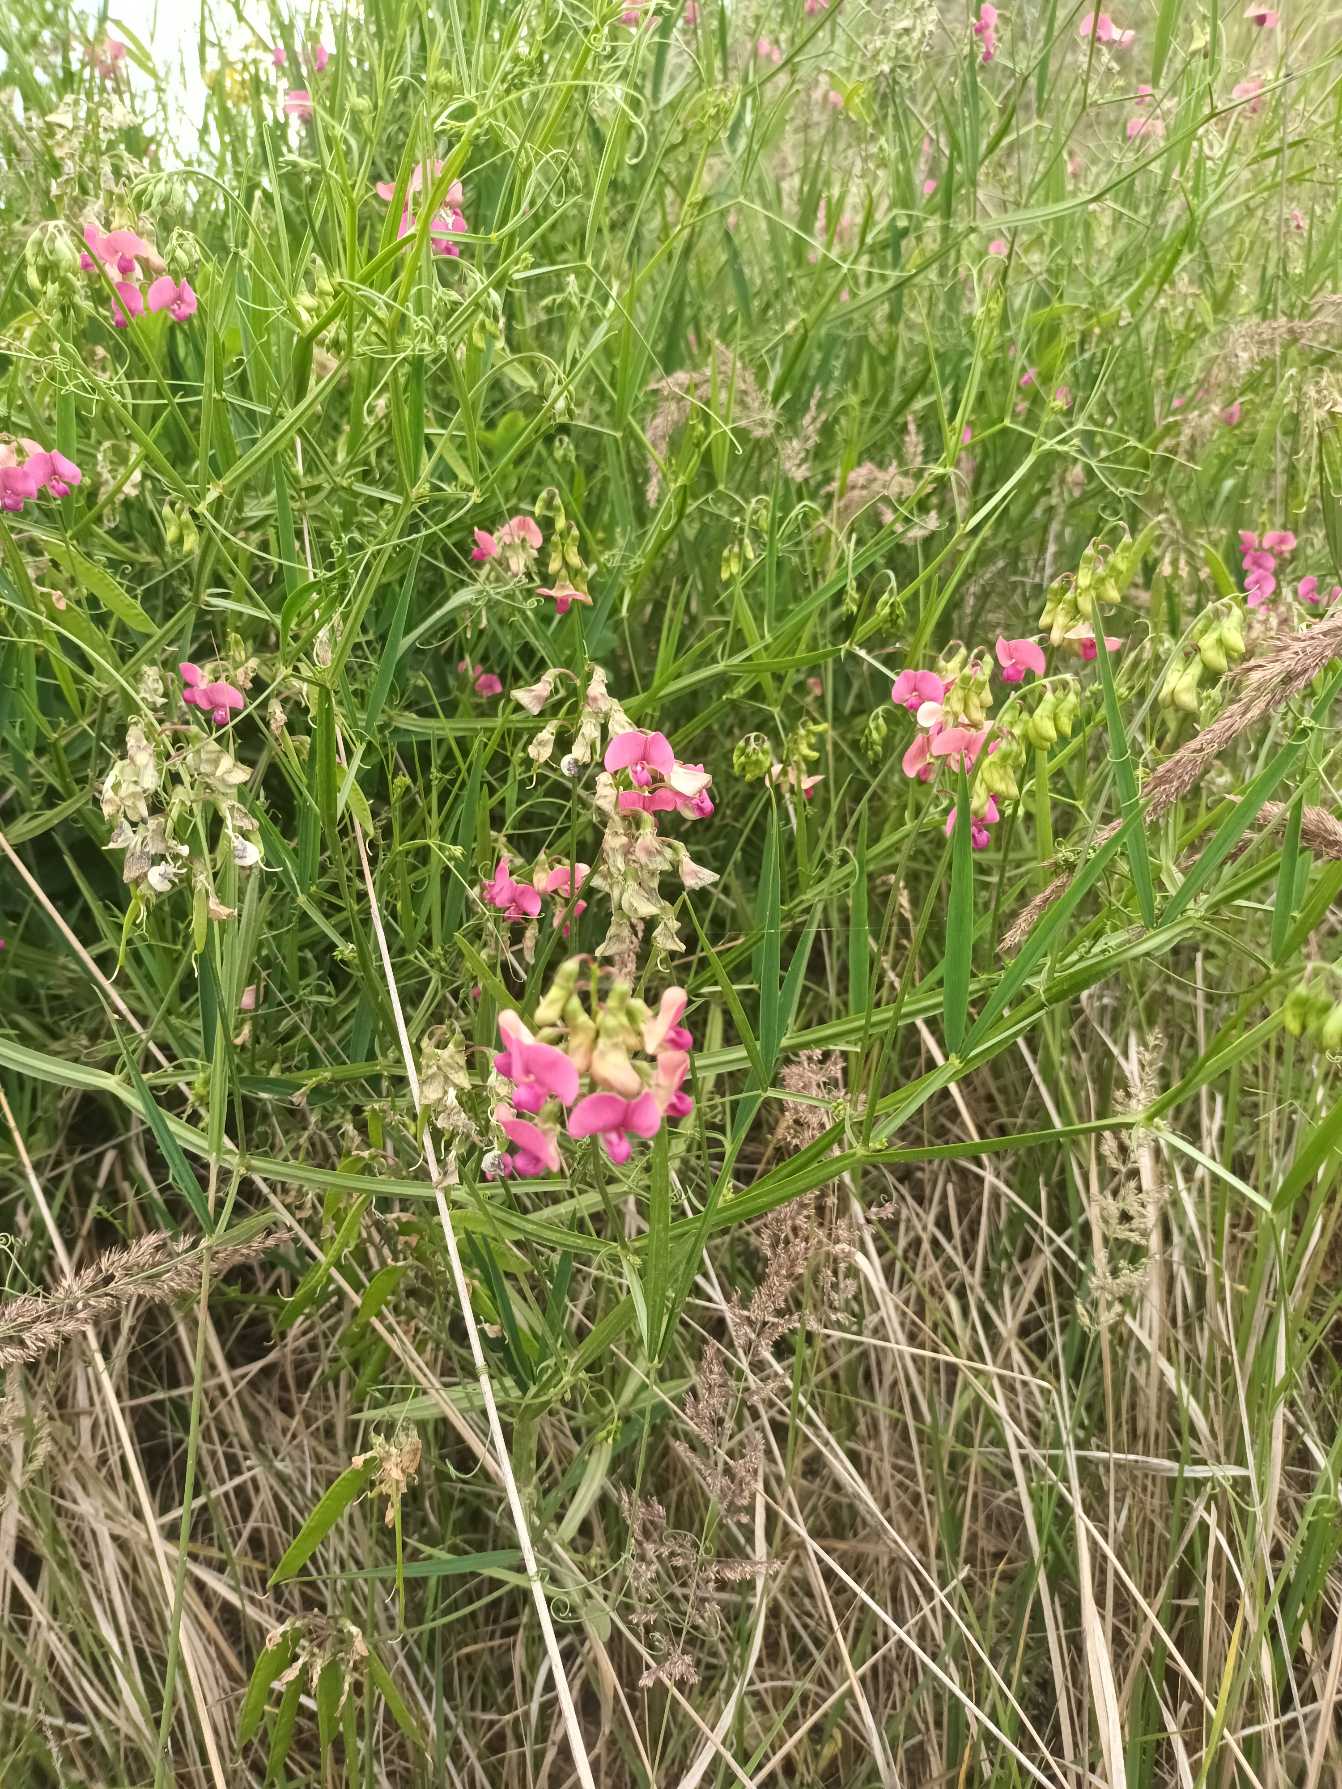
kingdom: Plantae
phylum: Tracheophyta
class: Magnoliopsida
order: Fabales
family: Fabaceae
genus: Lathyrus
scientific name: Lathyrus sylvestris
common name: Skov-fladbælg
